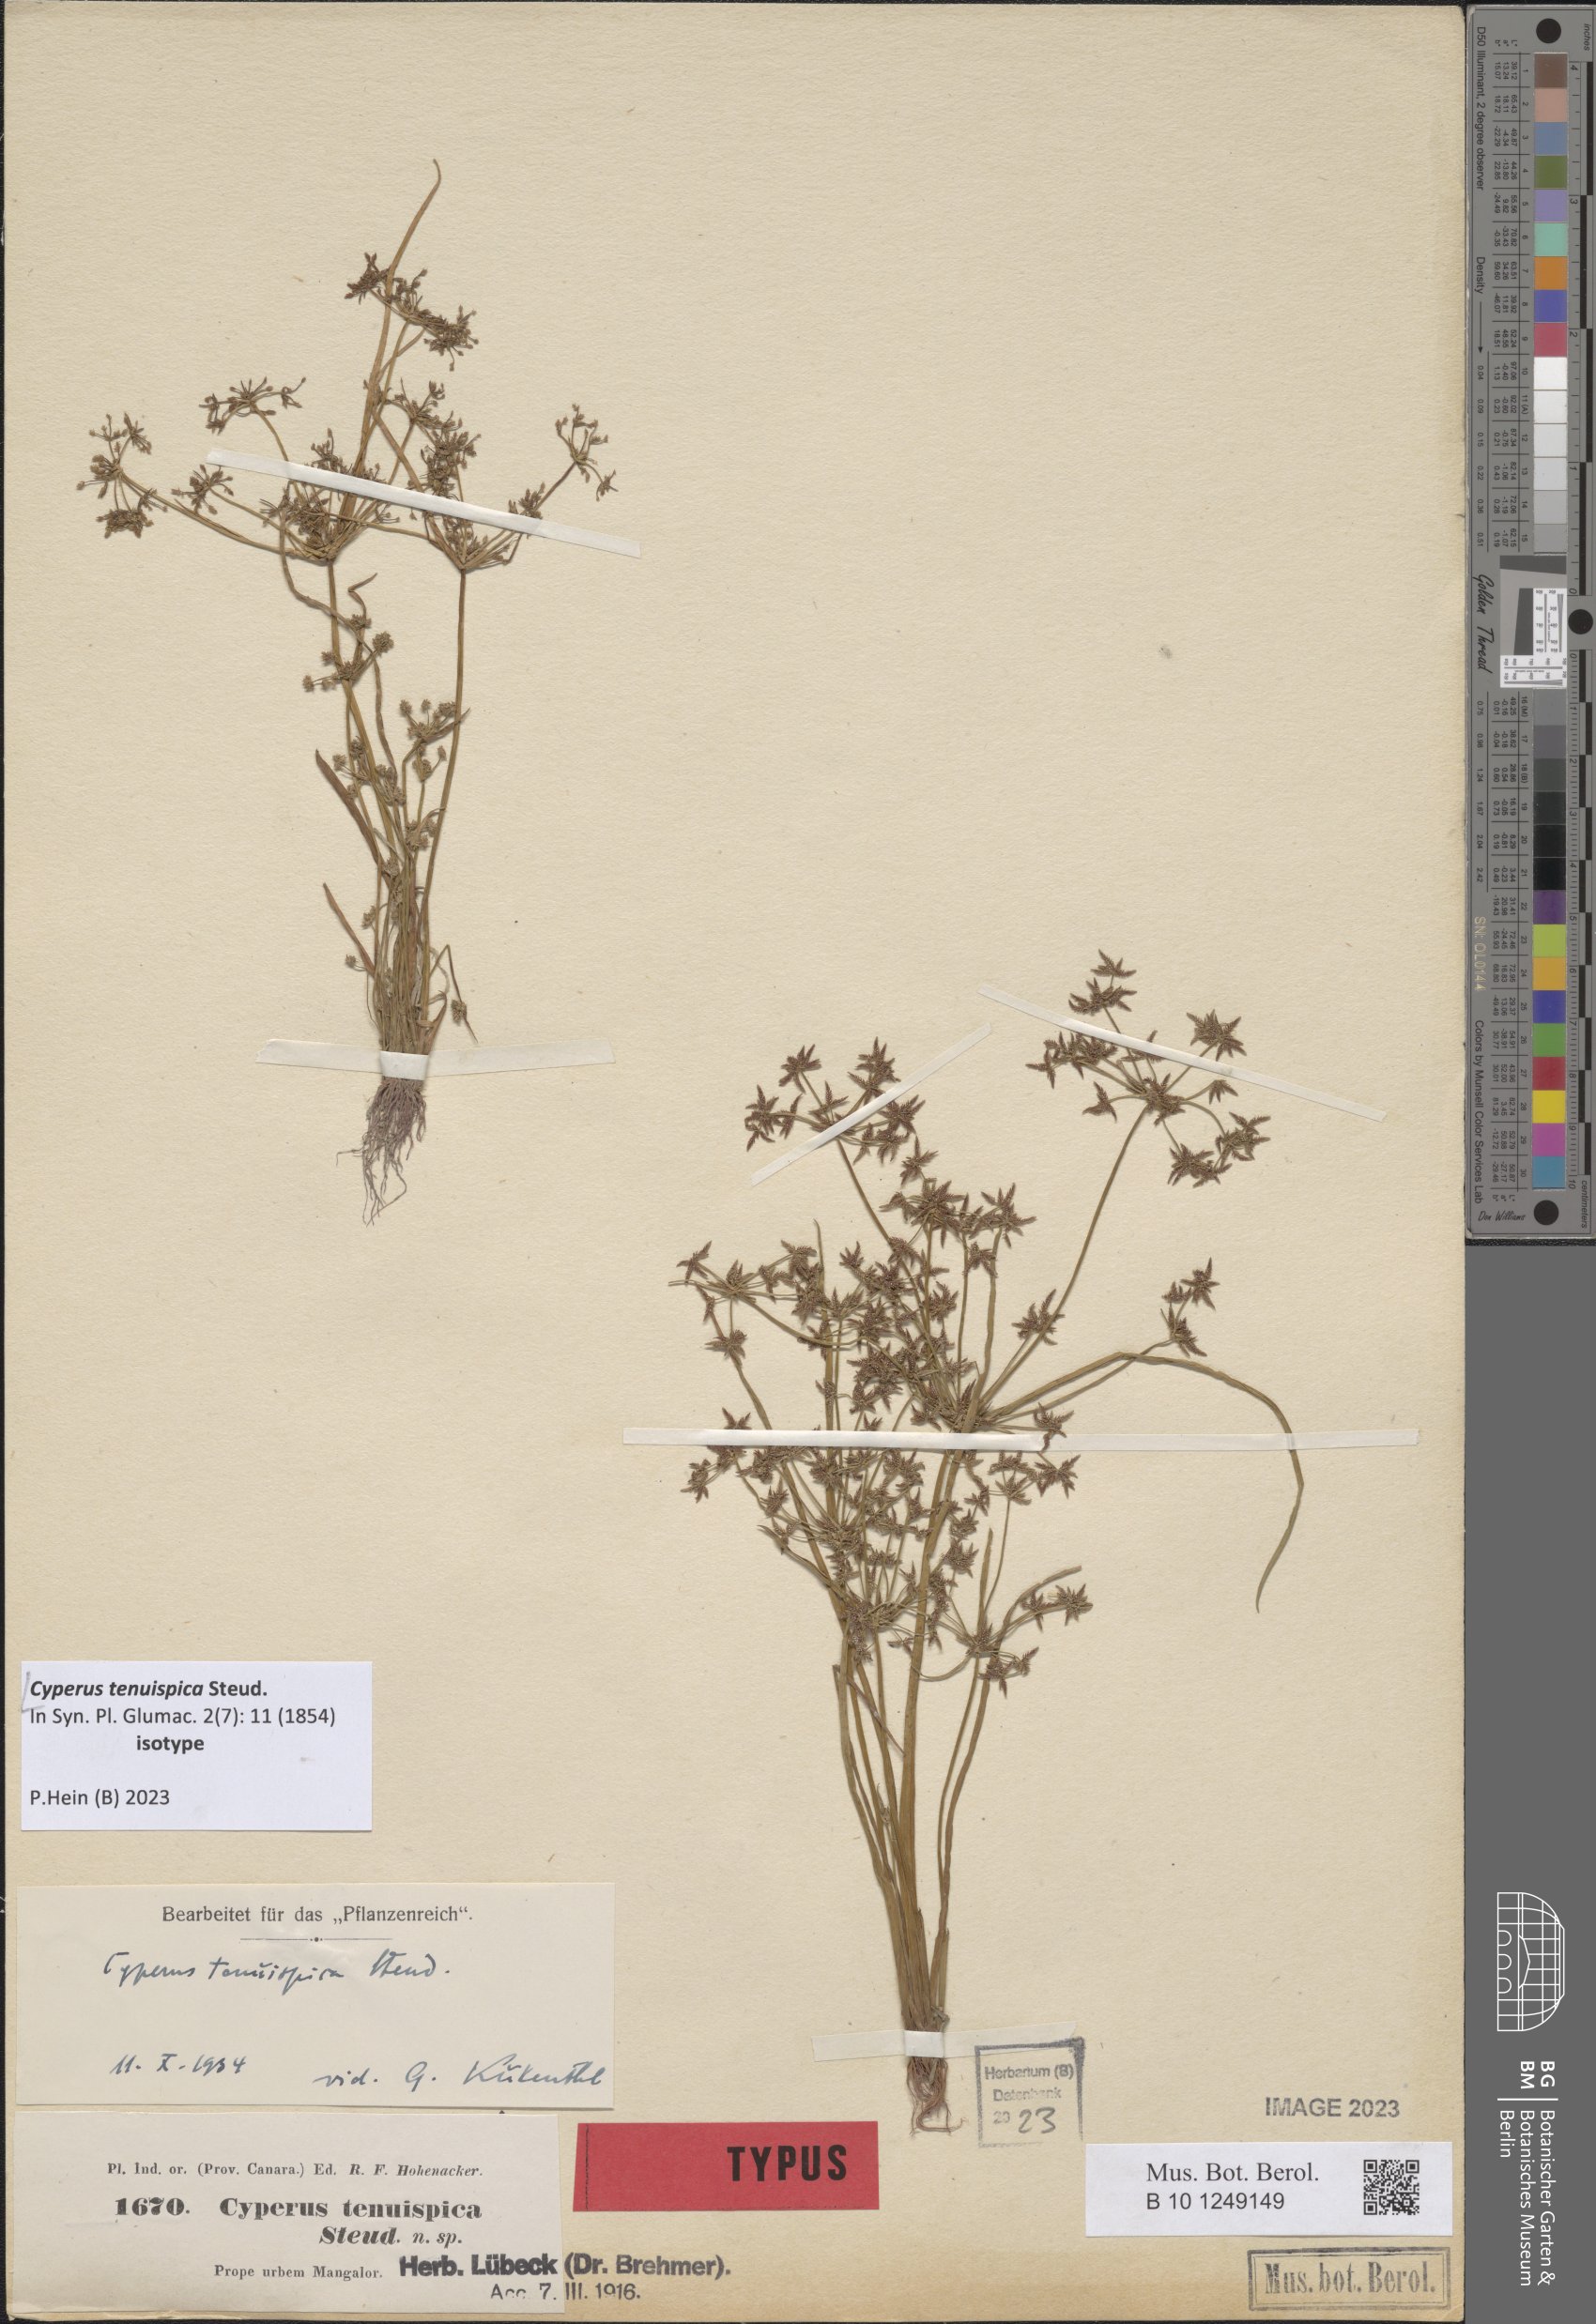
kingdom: Plantae
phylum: Tracheophyta
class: Liliopsida
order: Poales
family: Cyperaceae
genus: Cyperus
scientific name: Cyperus tenuispica
